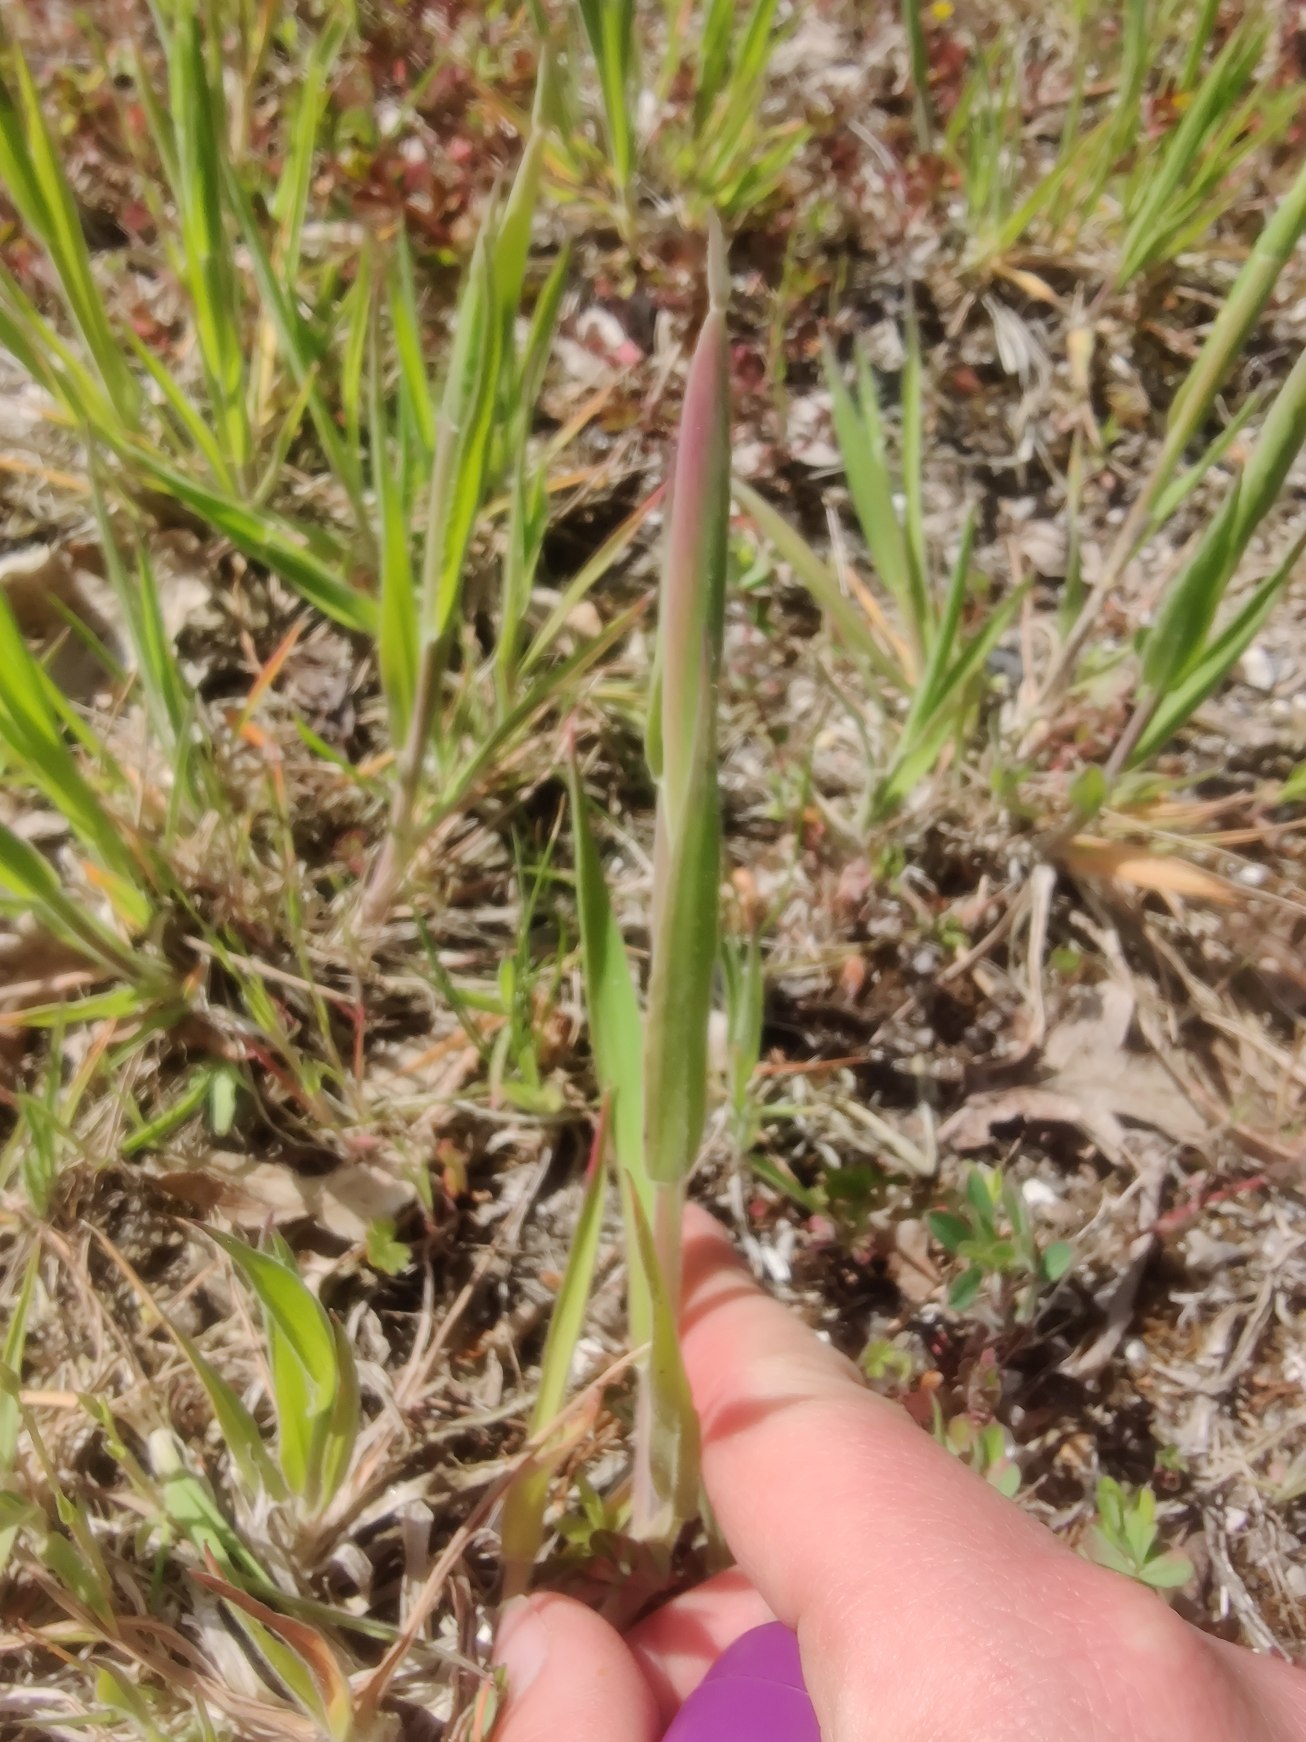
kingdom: Plantae
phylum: Tracheophyta
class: Liliopsida
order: Poales
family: Poaceae
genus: Holcus
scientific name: Holcus lanatus
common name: Fløjlsgræs
